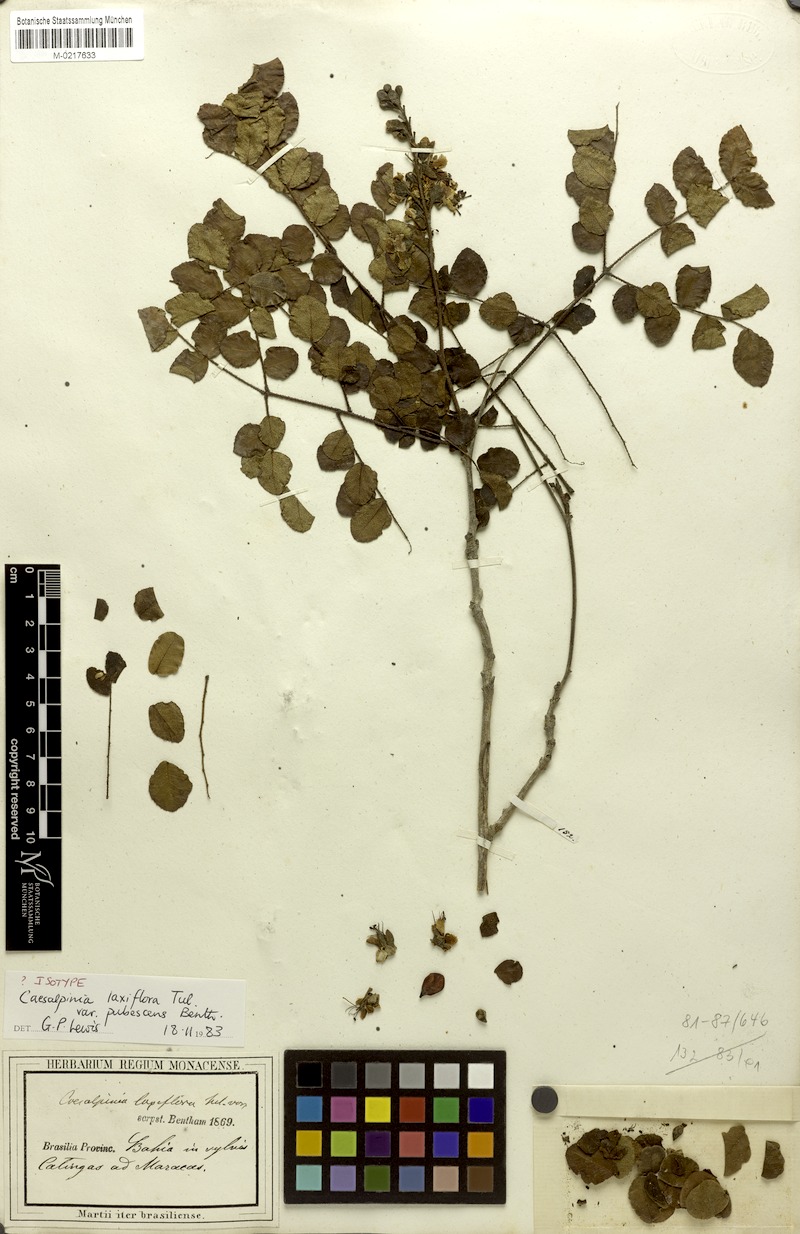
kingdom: Plantae
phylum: Tracheophyta
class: Magnoliopsida
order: Fabales
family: Fabaceae
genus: Cenostigma
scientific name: Cenostigma laxiflorum
